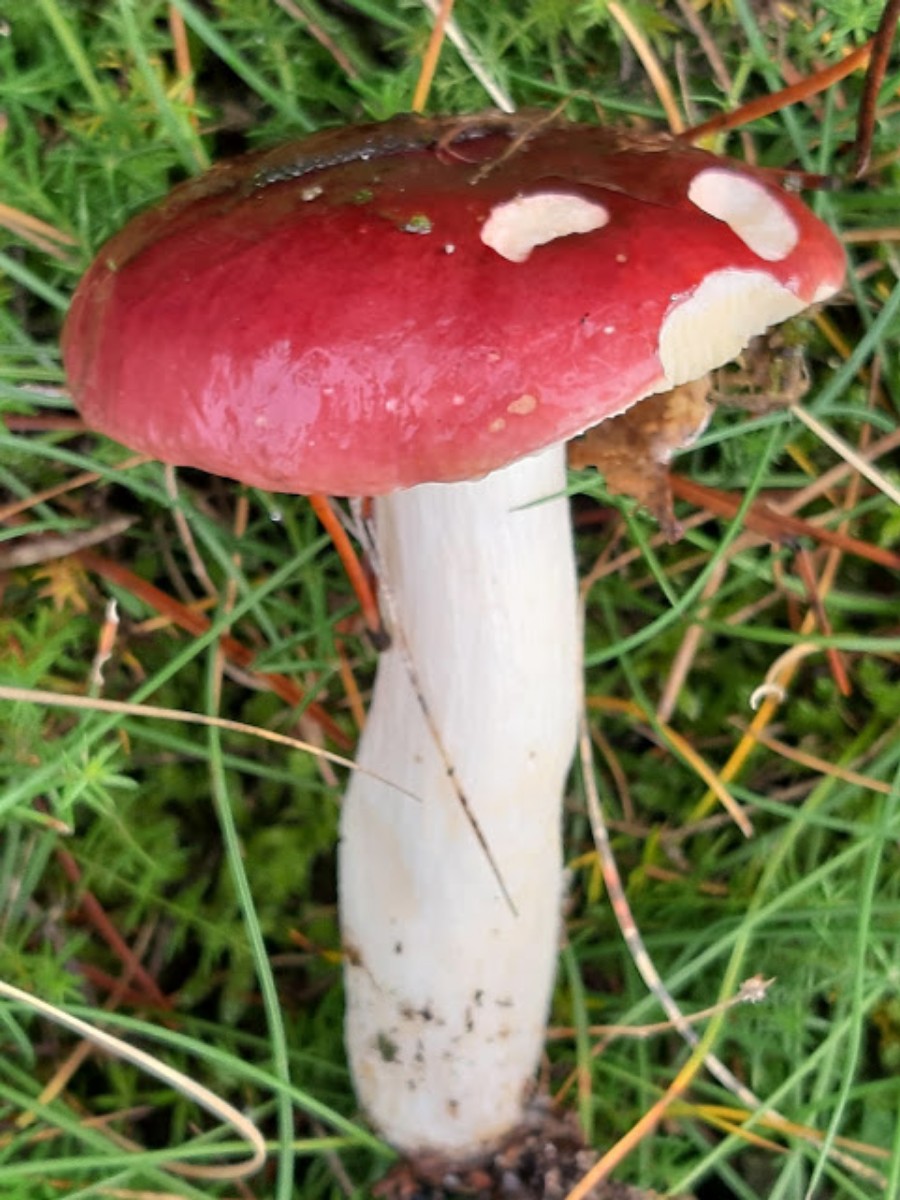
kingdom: Fungi
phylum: Basidiomycota
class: Agaricomycetes
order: Russulales
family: Russulaceae
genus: Russula
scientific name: Russula paludosa
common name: prægtig skørhat
